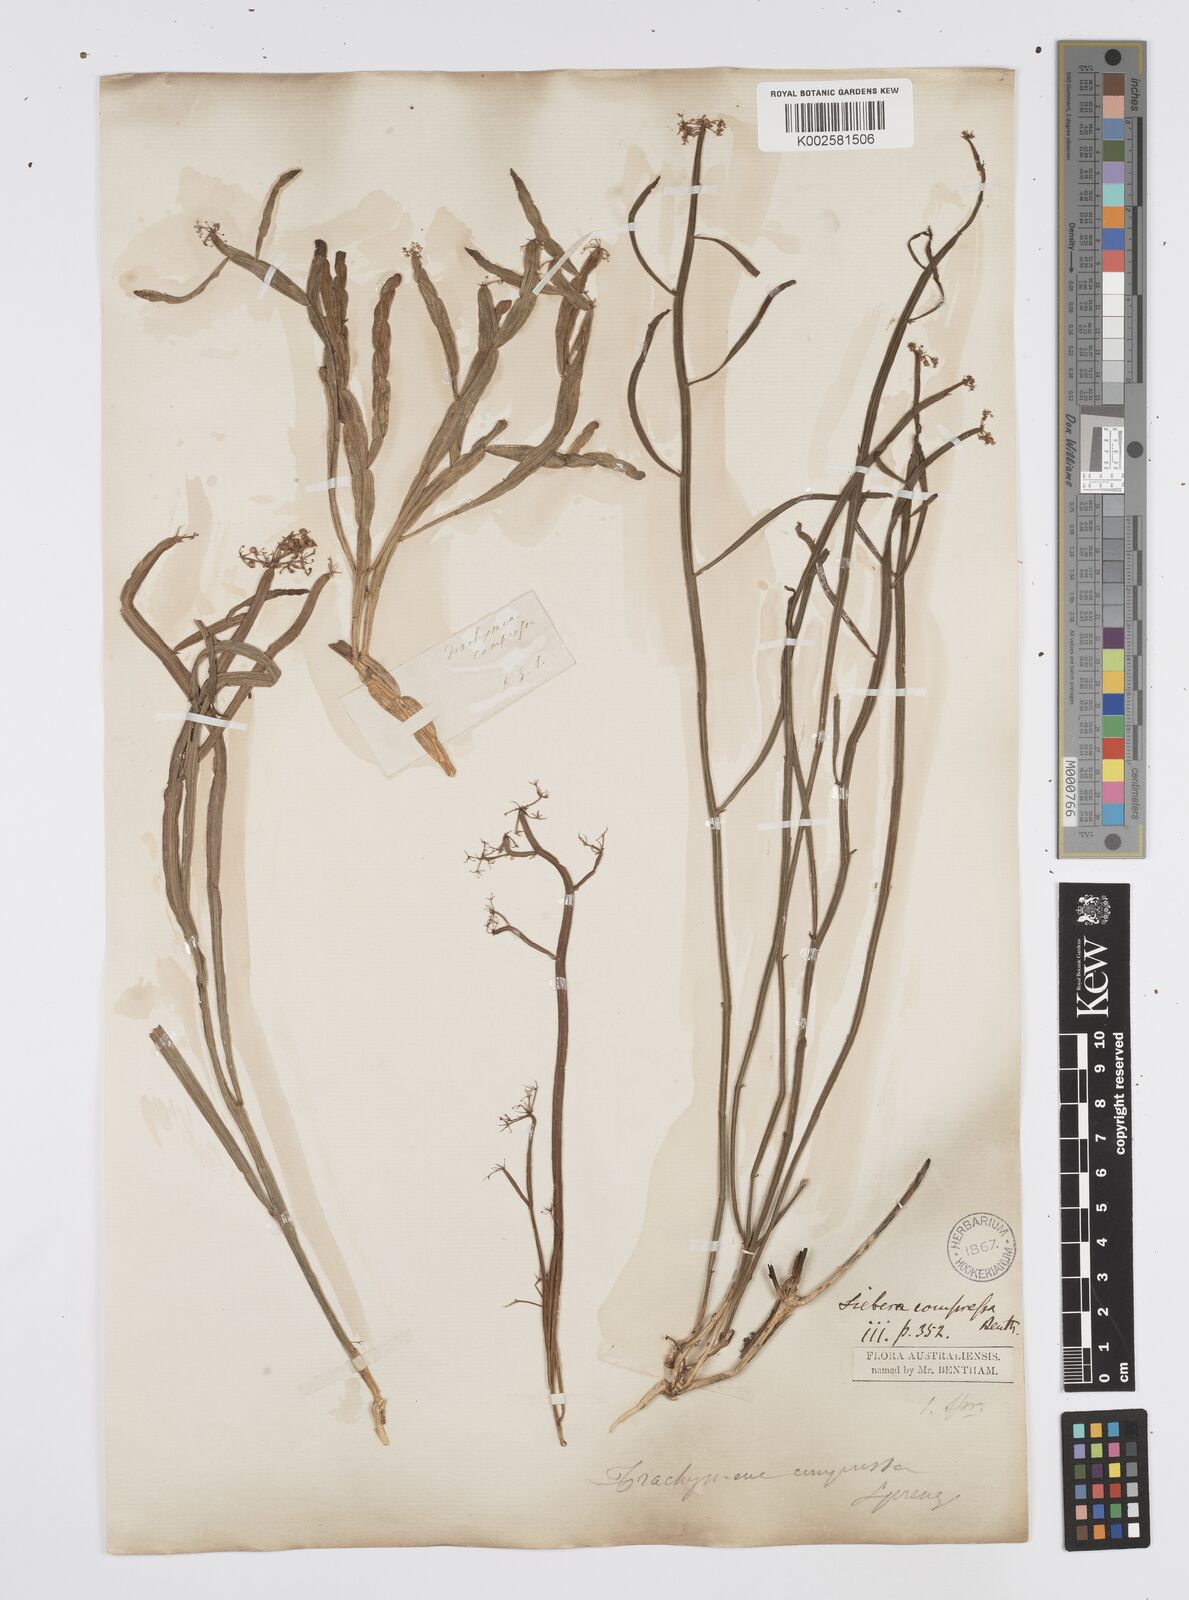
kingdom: Plantae
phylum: Tracheophyta
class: Magnoliopsida
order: Apiales
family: Apiaceae
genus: Centella
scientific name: Centella
